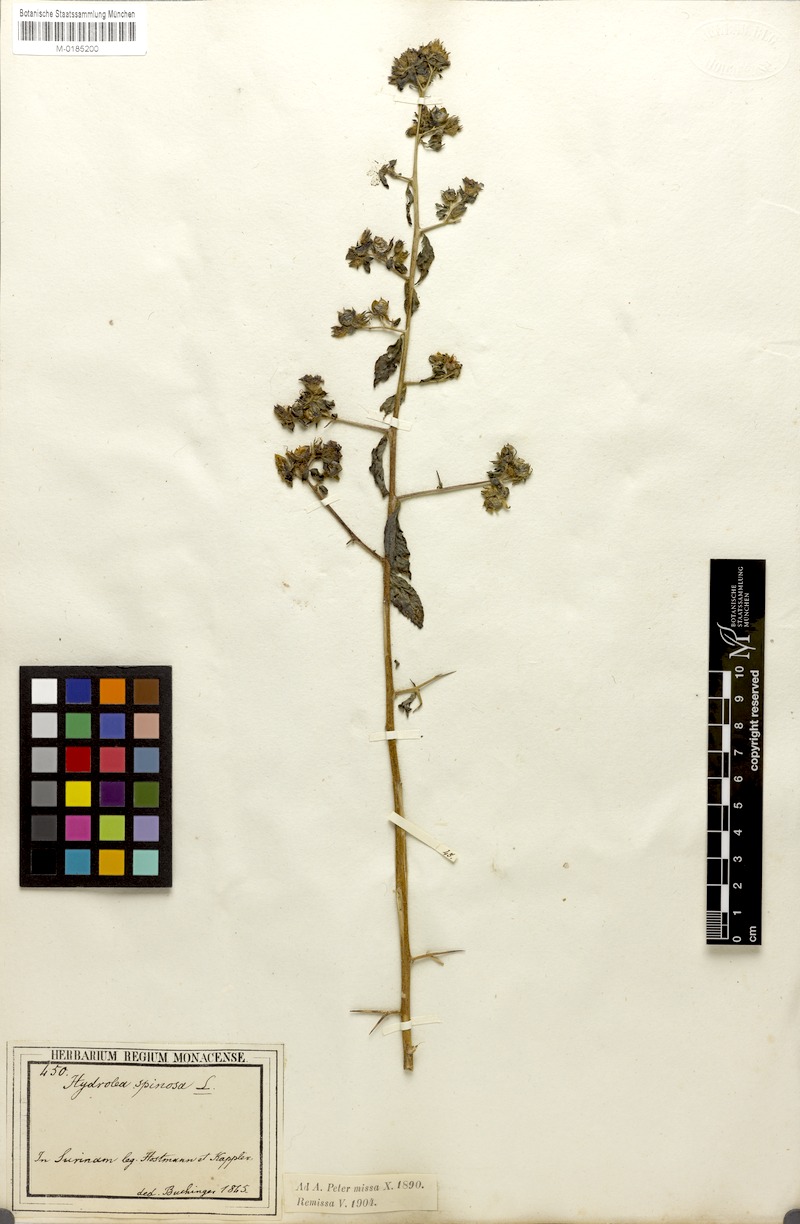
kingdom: Plantae
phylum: Tracheophyta
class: Magnoliopsida
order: Solanales
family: Hydroleaceae
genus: Hydrolea
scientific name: Hydrolea spinosa
